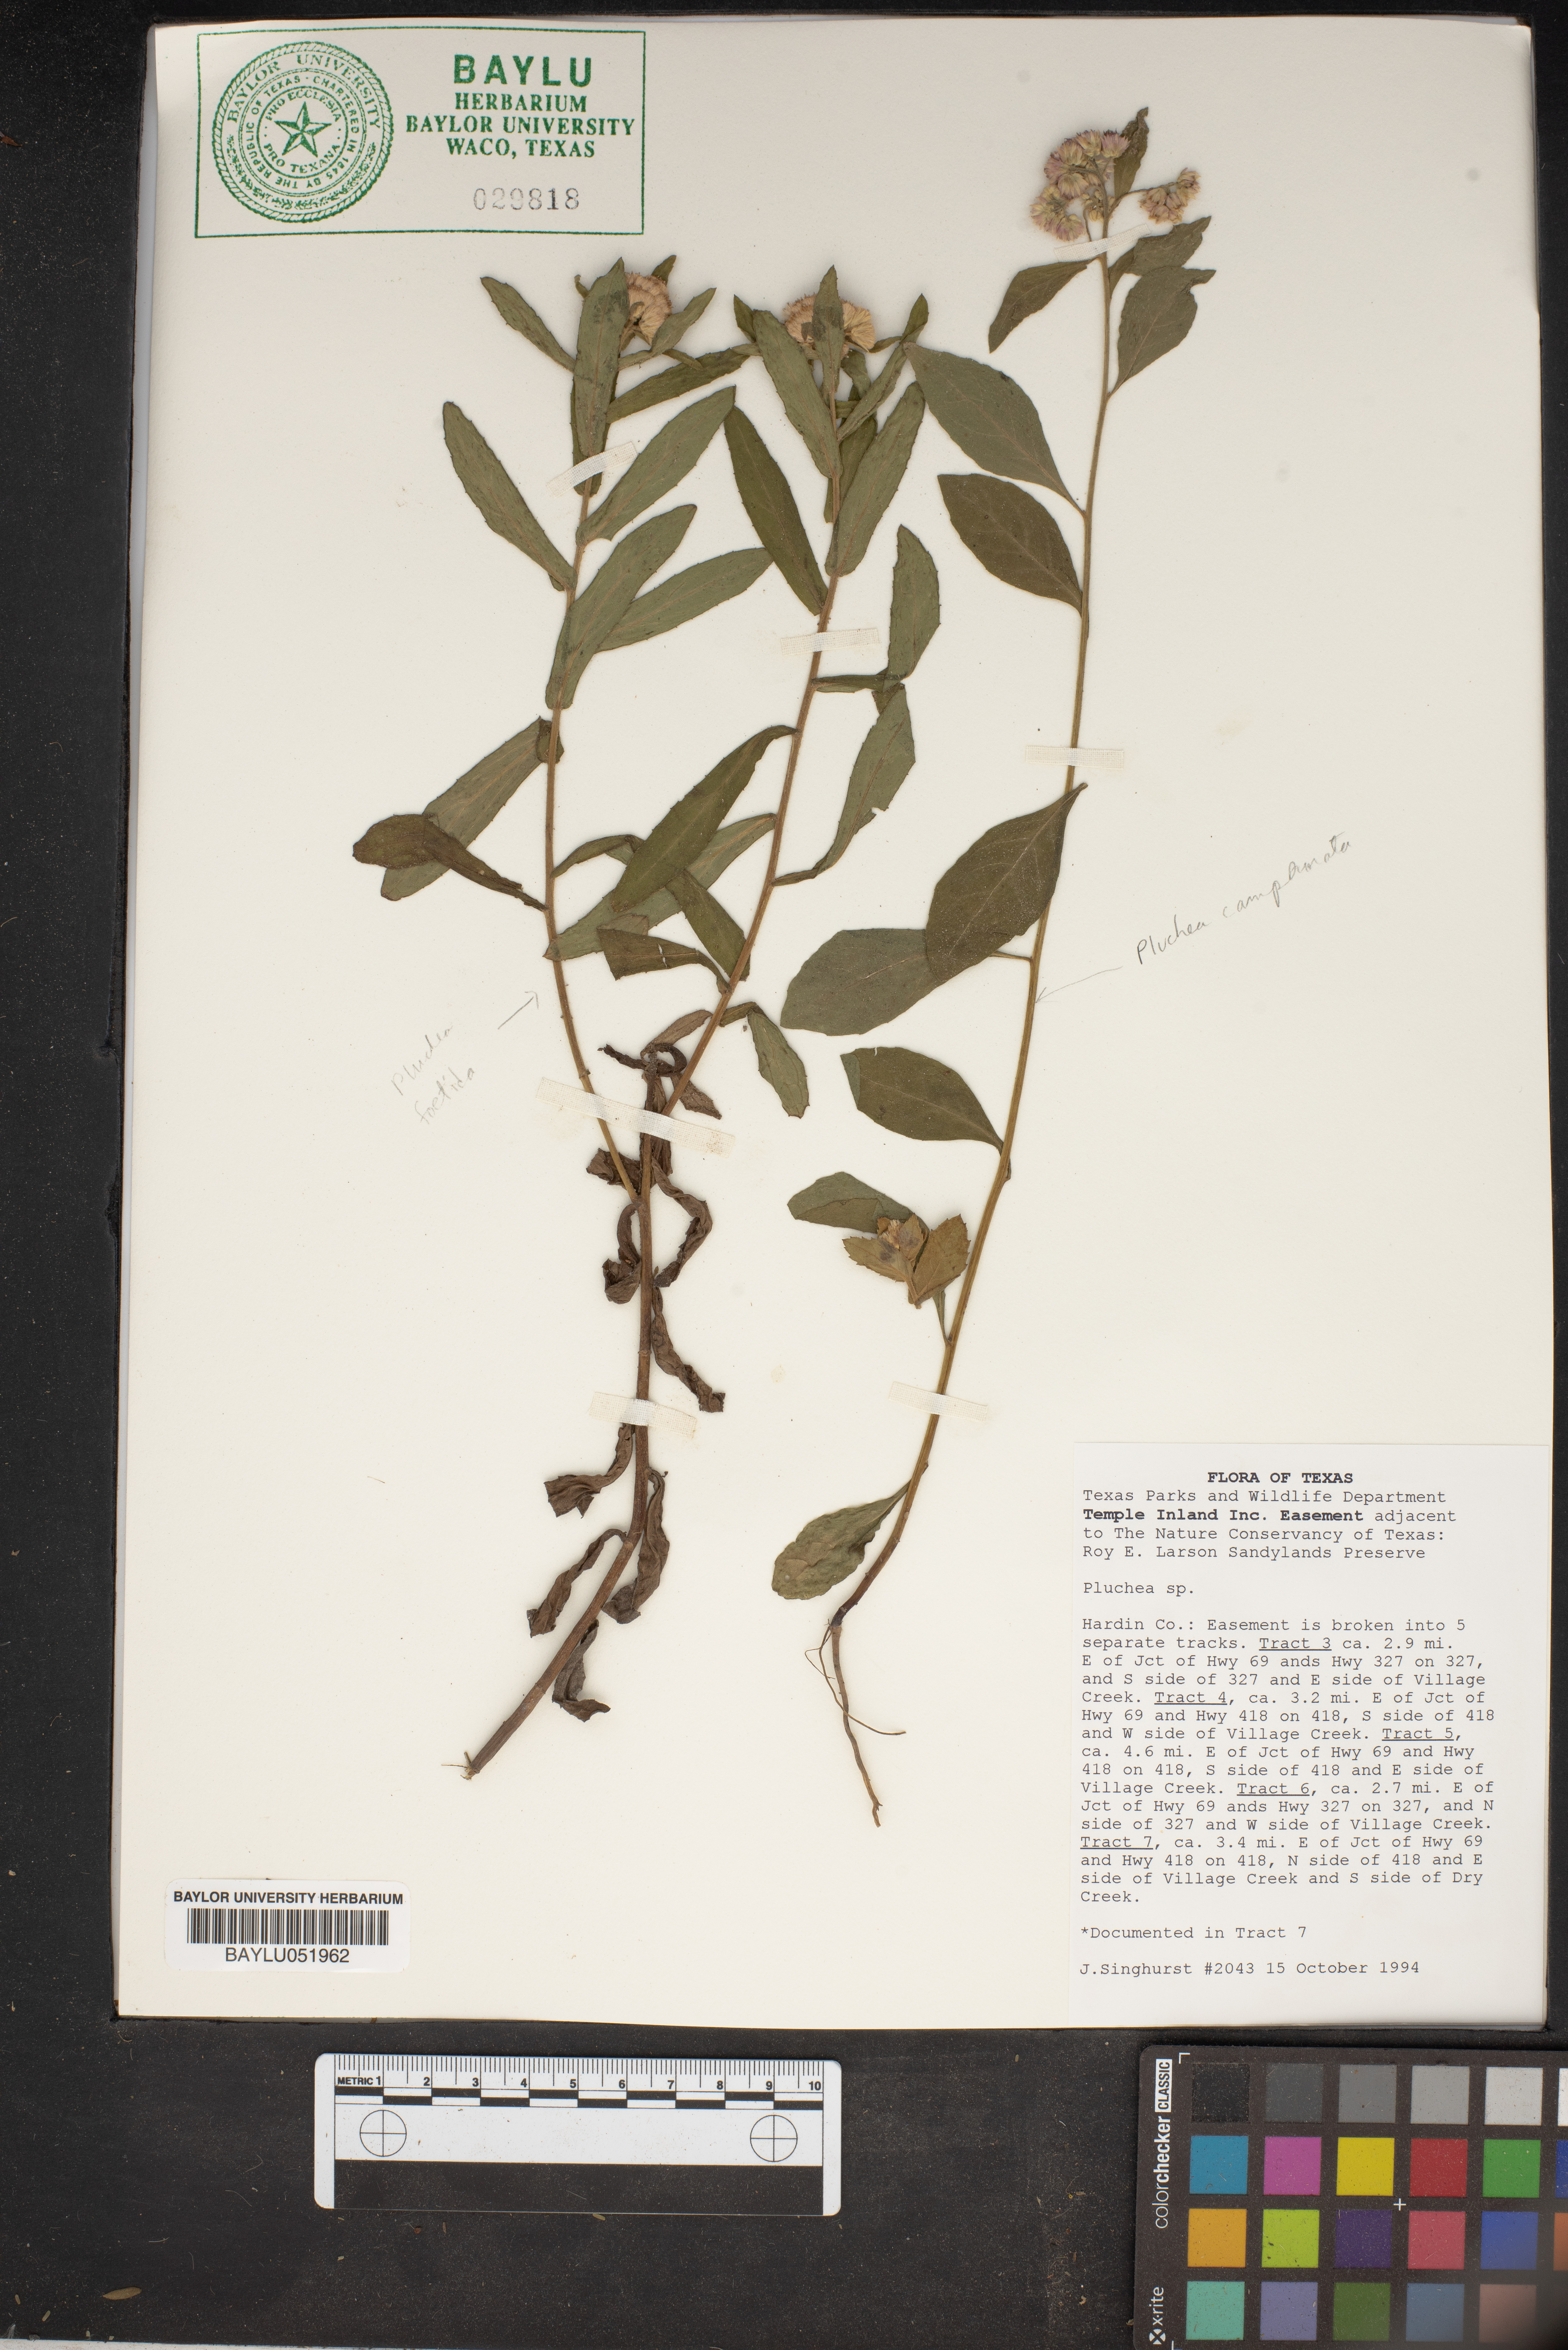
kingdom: Plantae
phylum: Tracheophyta
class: Magnoliopsida
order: Asterales
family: Asteraceae
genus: Pluchea
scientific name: Pluchea
